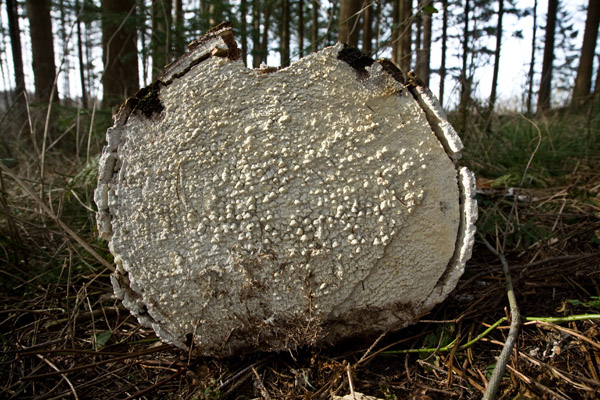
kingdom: Fungi
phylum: Basidiomycota
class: Agaricomycetes
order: Polyporales
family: Fomitopsidaceae
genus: Daedalea
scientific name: Daedalea xantha
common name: gul sejporesvamp
